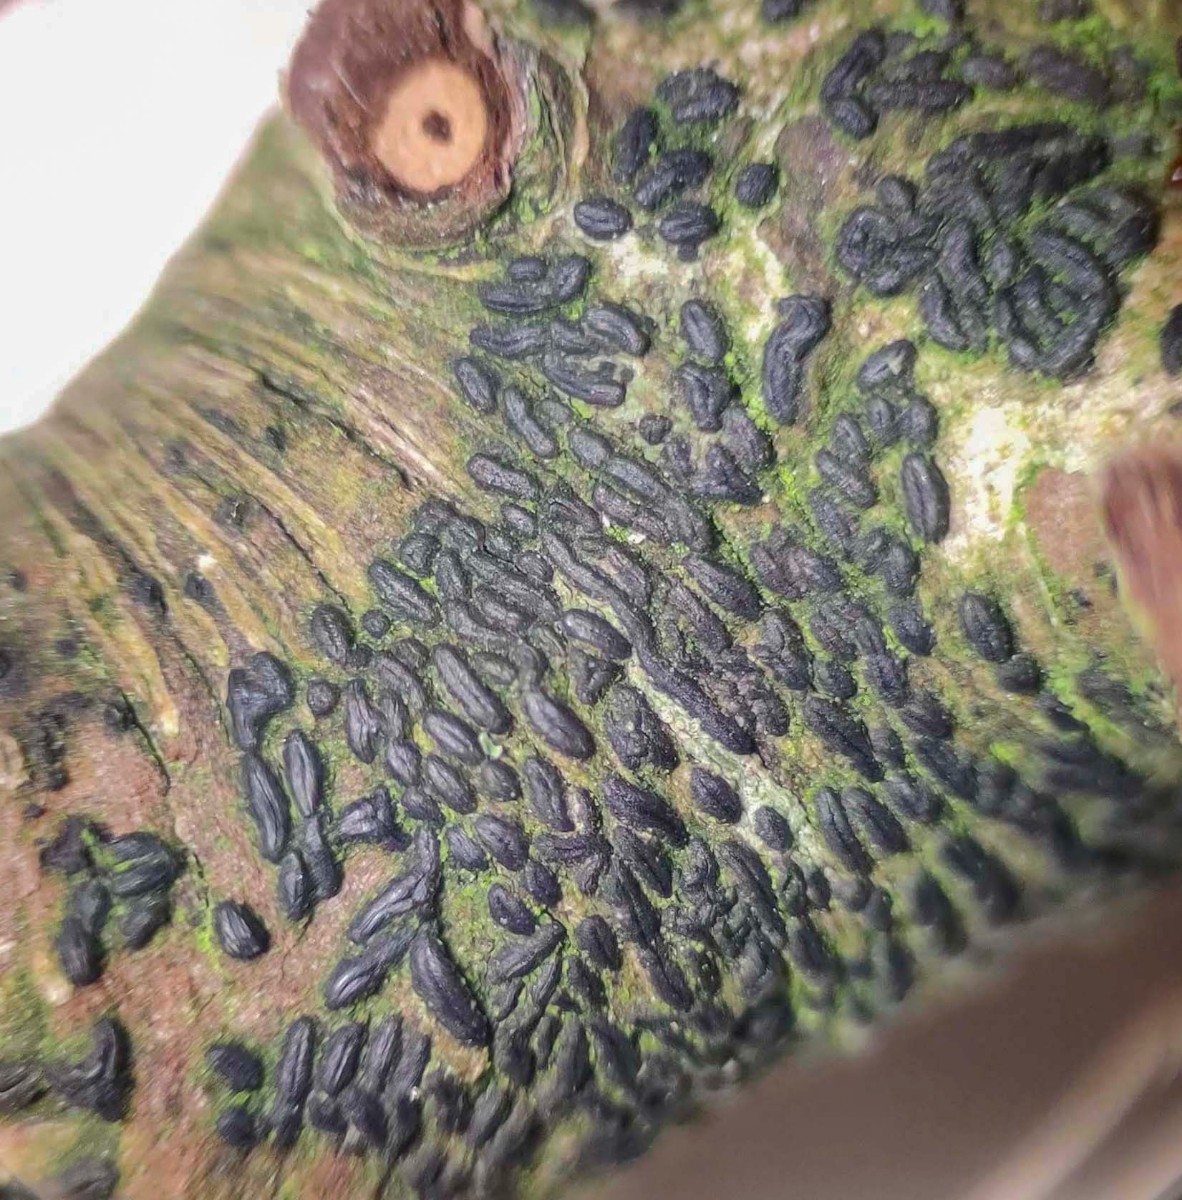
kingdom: Fungi
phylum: Ascomycota
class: Dothideomycetes
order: Hysteriales
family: Hysteriaceae
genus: Hysterium
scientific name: Hysterium pulicare
